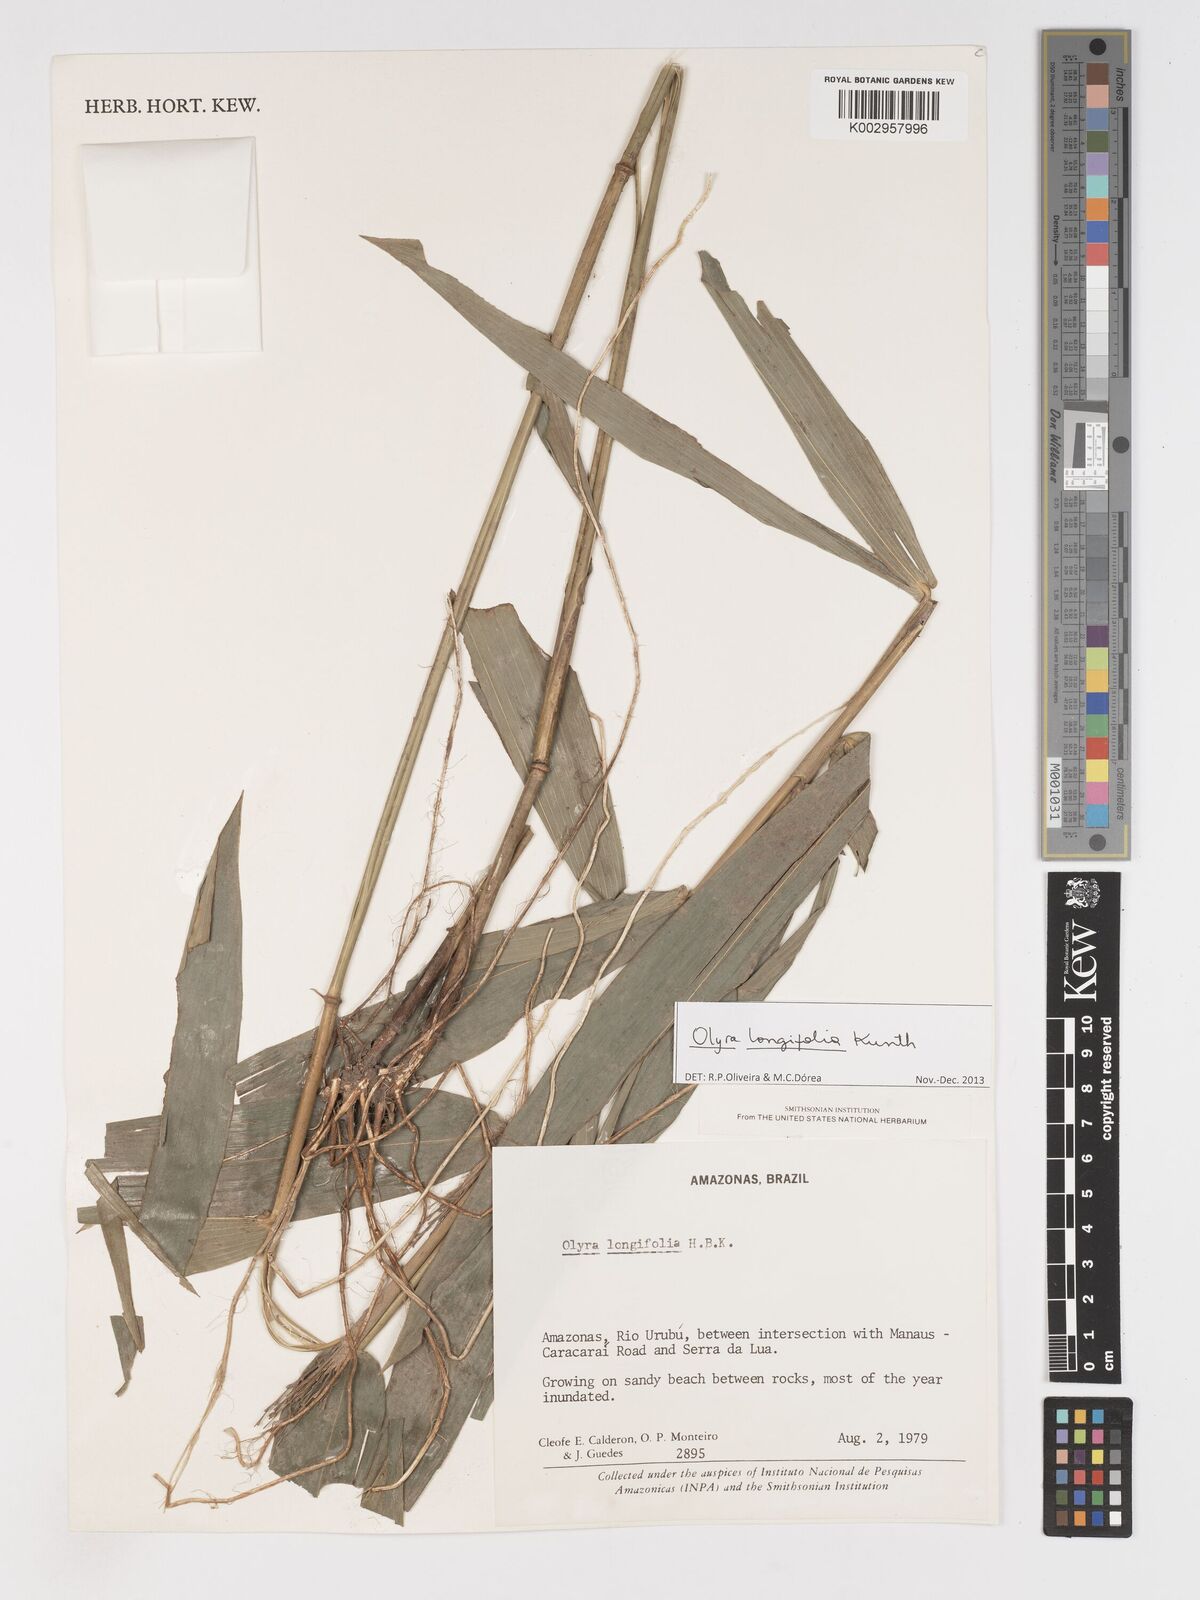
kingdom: Plantae
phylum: Tracheophyta
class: Liliopsida
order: Poales
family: Poaceae
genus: Olyra
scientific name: Olyra longifolia
